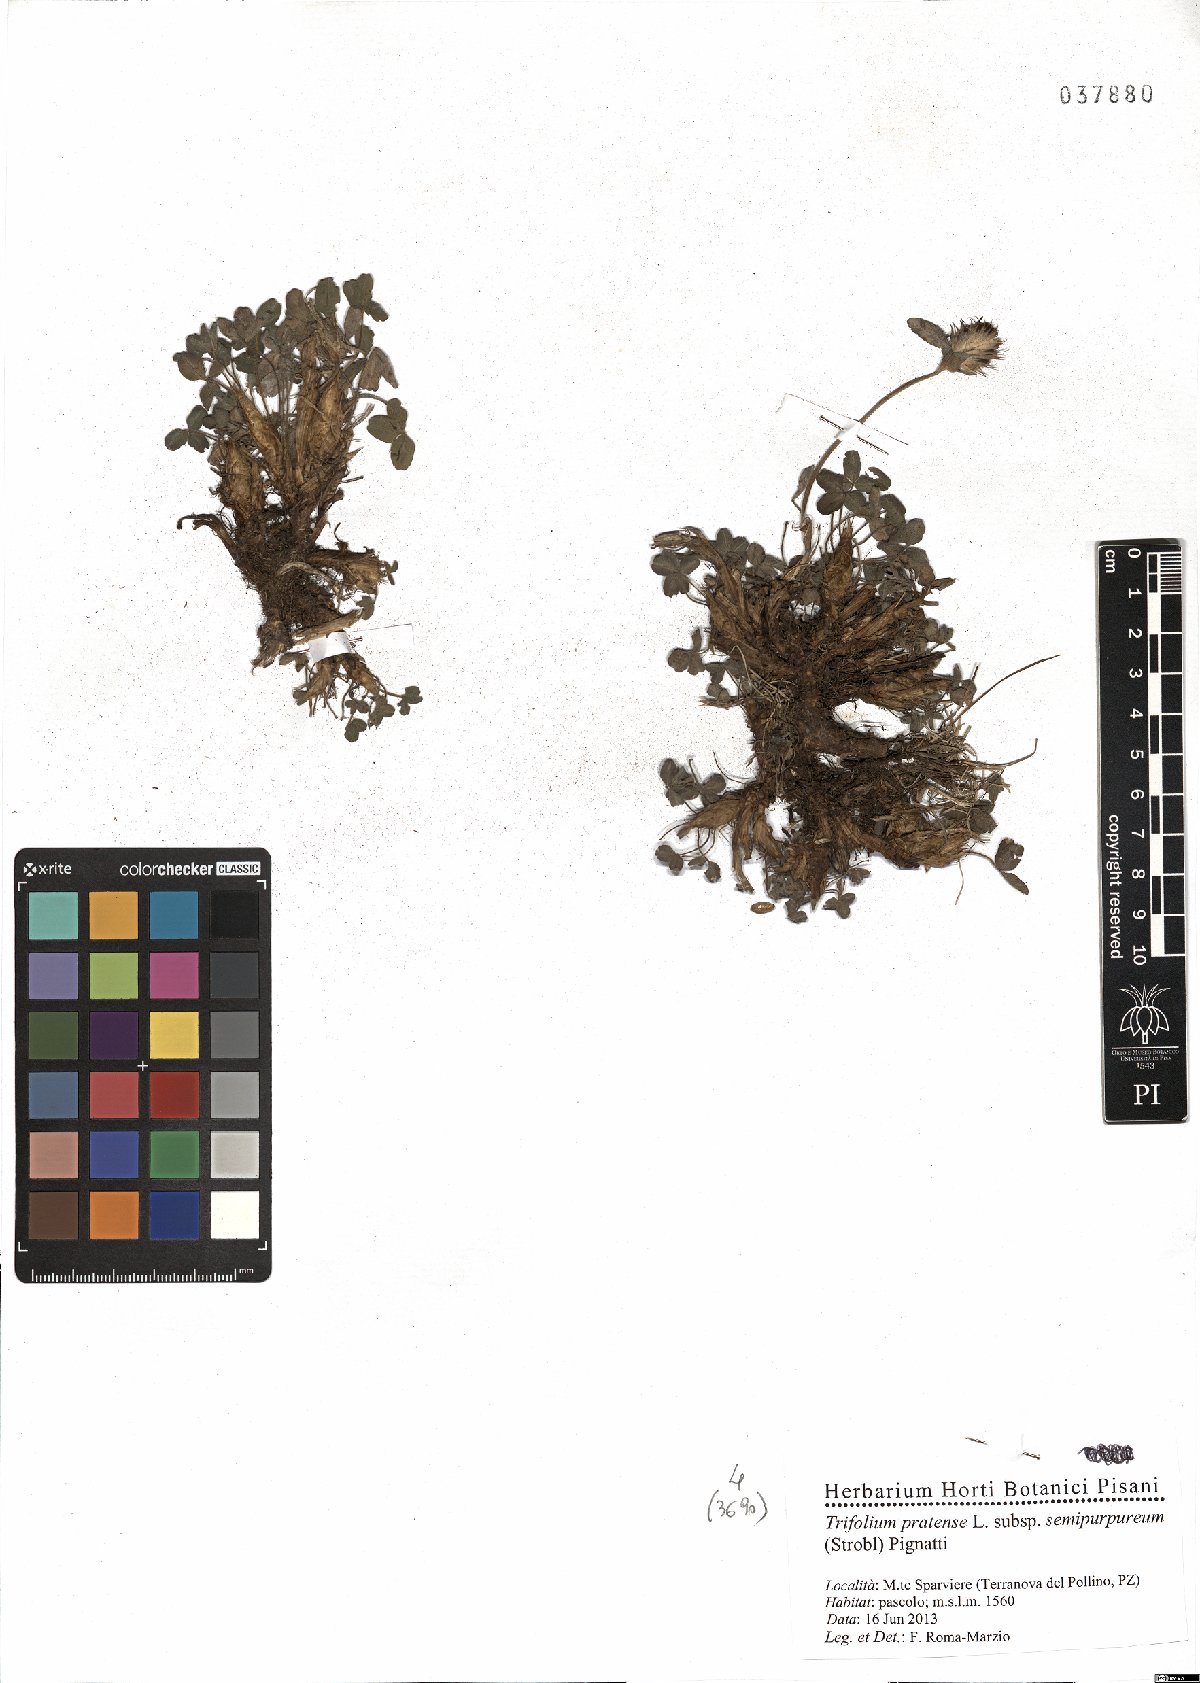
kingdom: Plantae
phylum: Tracheophyta
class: Magnoliopsida
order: Fabales
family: Fabaceae
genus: Trifolium
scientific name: Trifolium pratense
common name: Red clover
